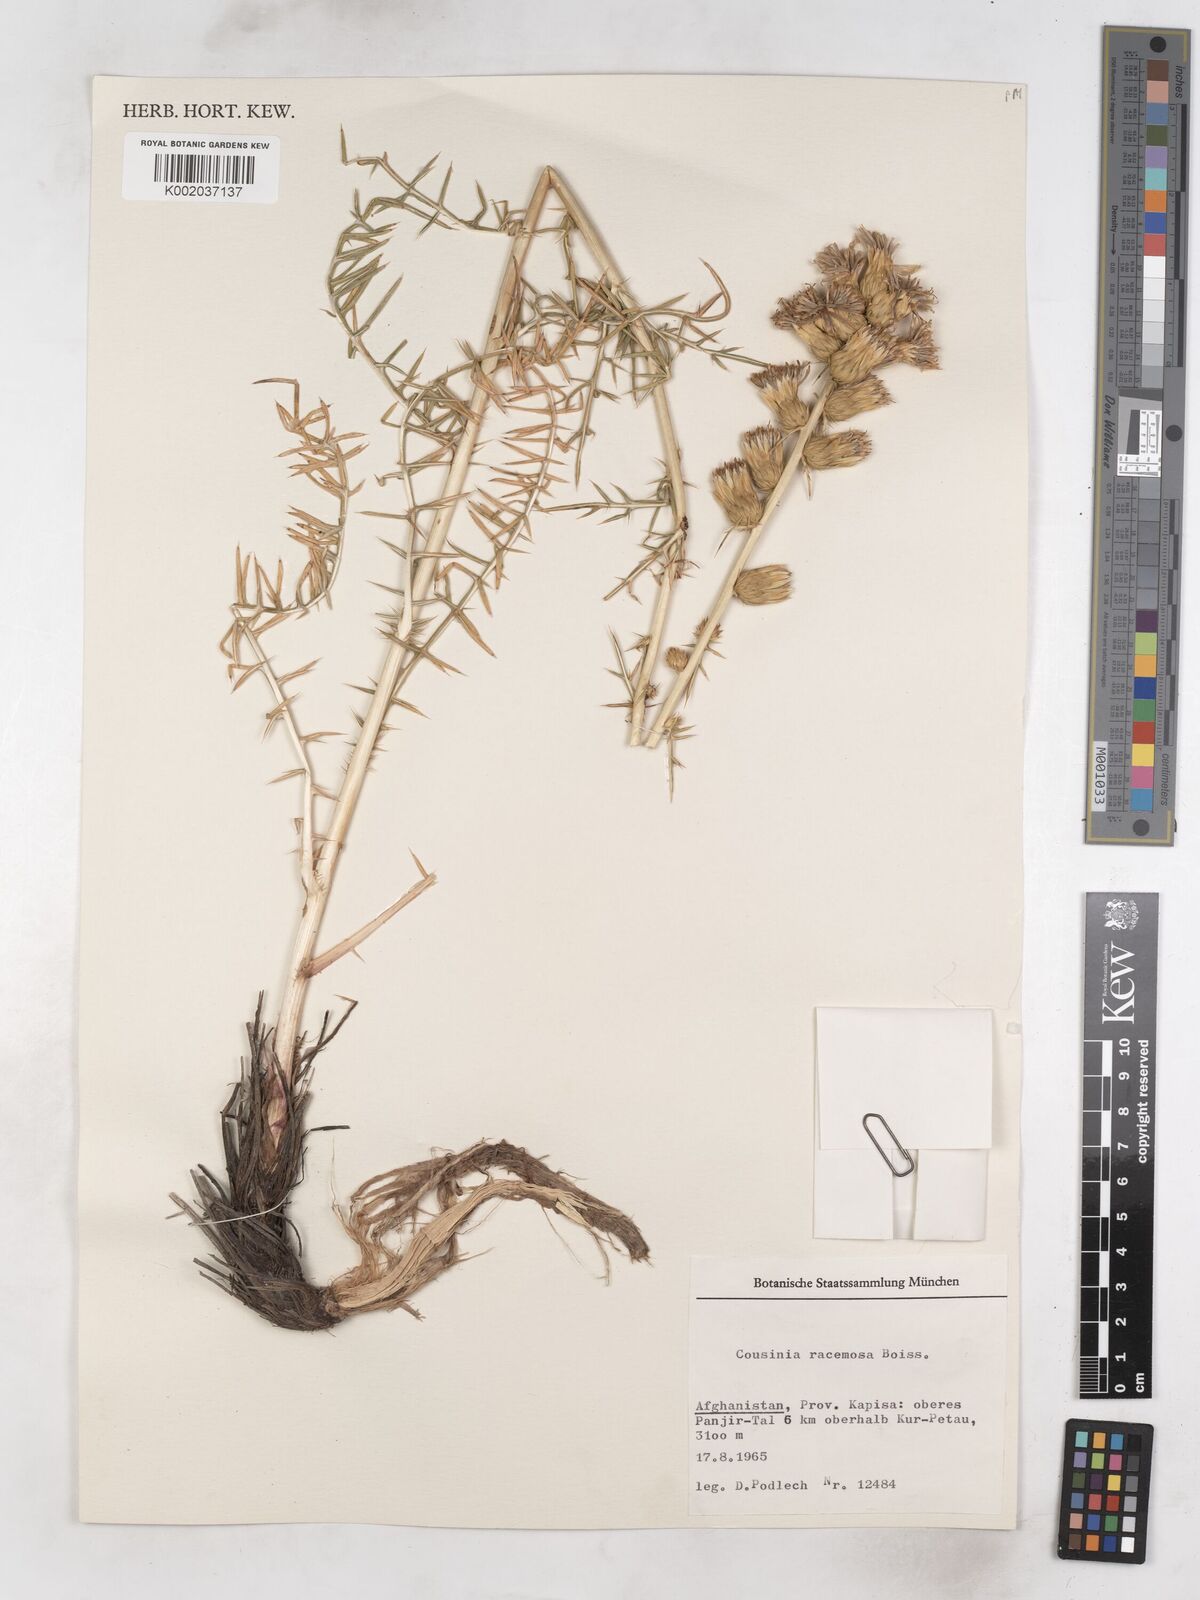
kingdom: Plantae
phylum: Tracheophyta
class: Magnoliopsida
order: Asterales
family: Asteraceae
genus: Cousinia
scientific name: Cousinia racemosa
